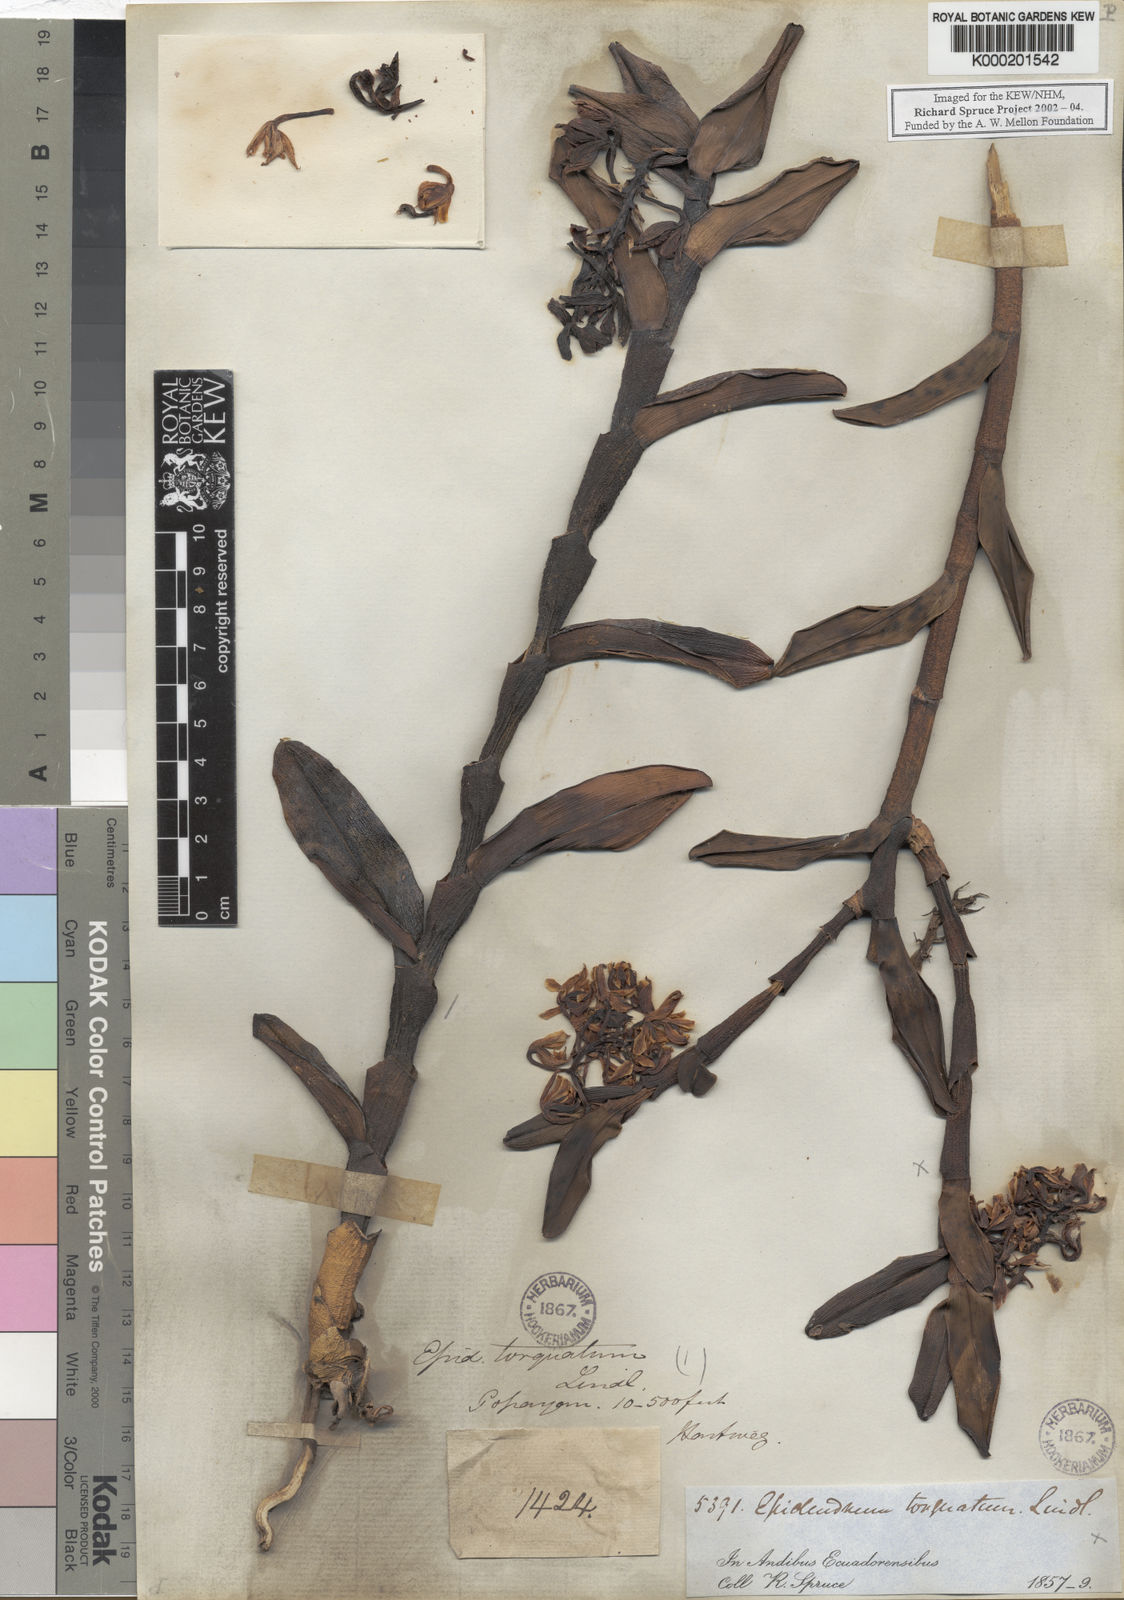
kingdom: Plantae
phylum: Tracheophyta
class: Liliopsida
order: Asparagales
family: Orchidaceae
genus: Epidendrum
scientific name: Epidendrum torquatum
